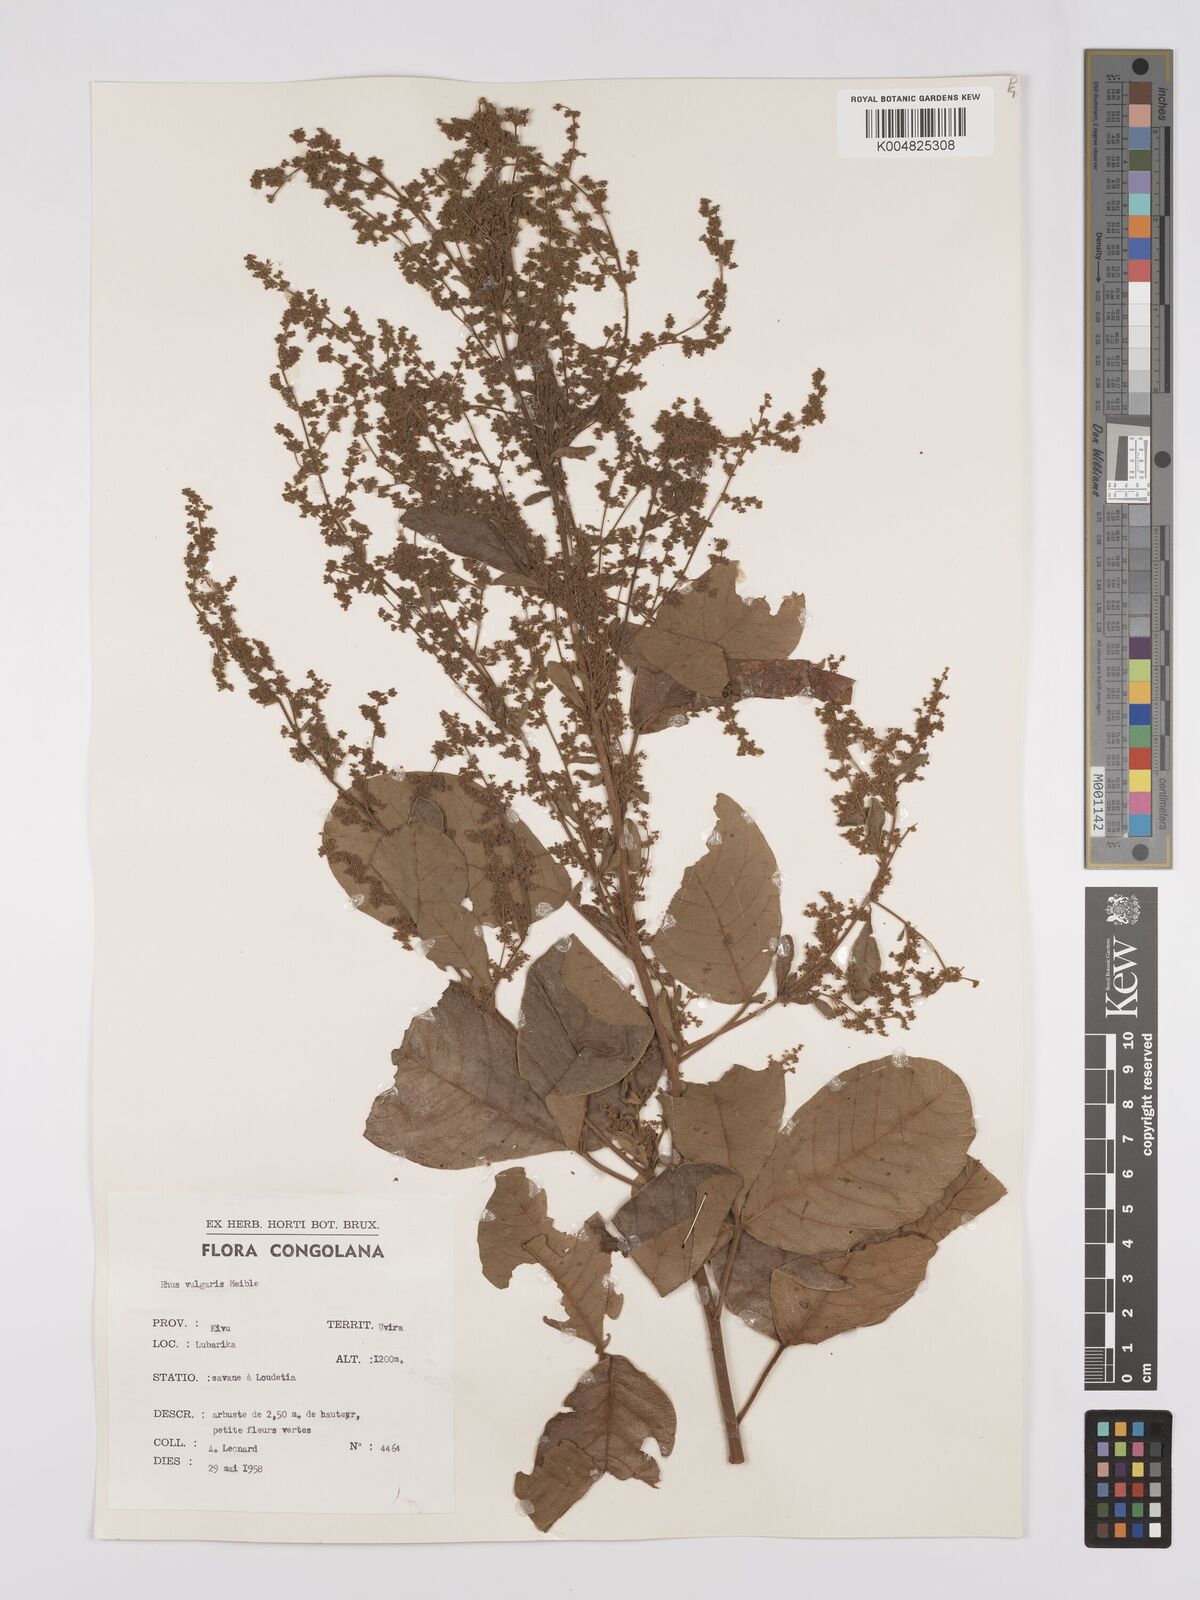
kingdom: Plantae
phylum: Tracheophyta
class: Magnoliopsida
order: Sapindales
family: Anacardiaceae
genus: Searsia
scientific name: Searsia pyroides
